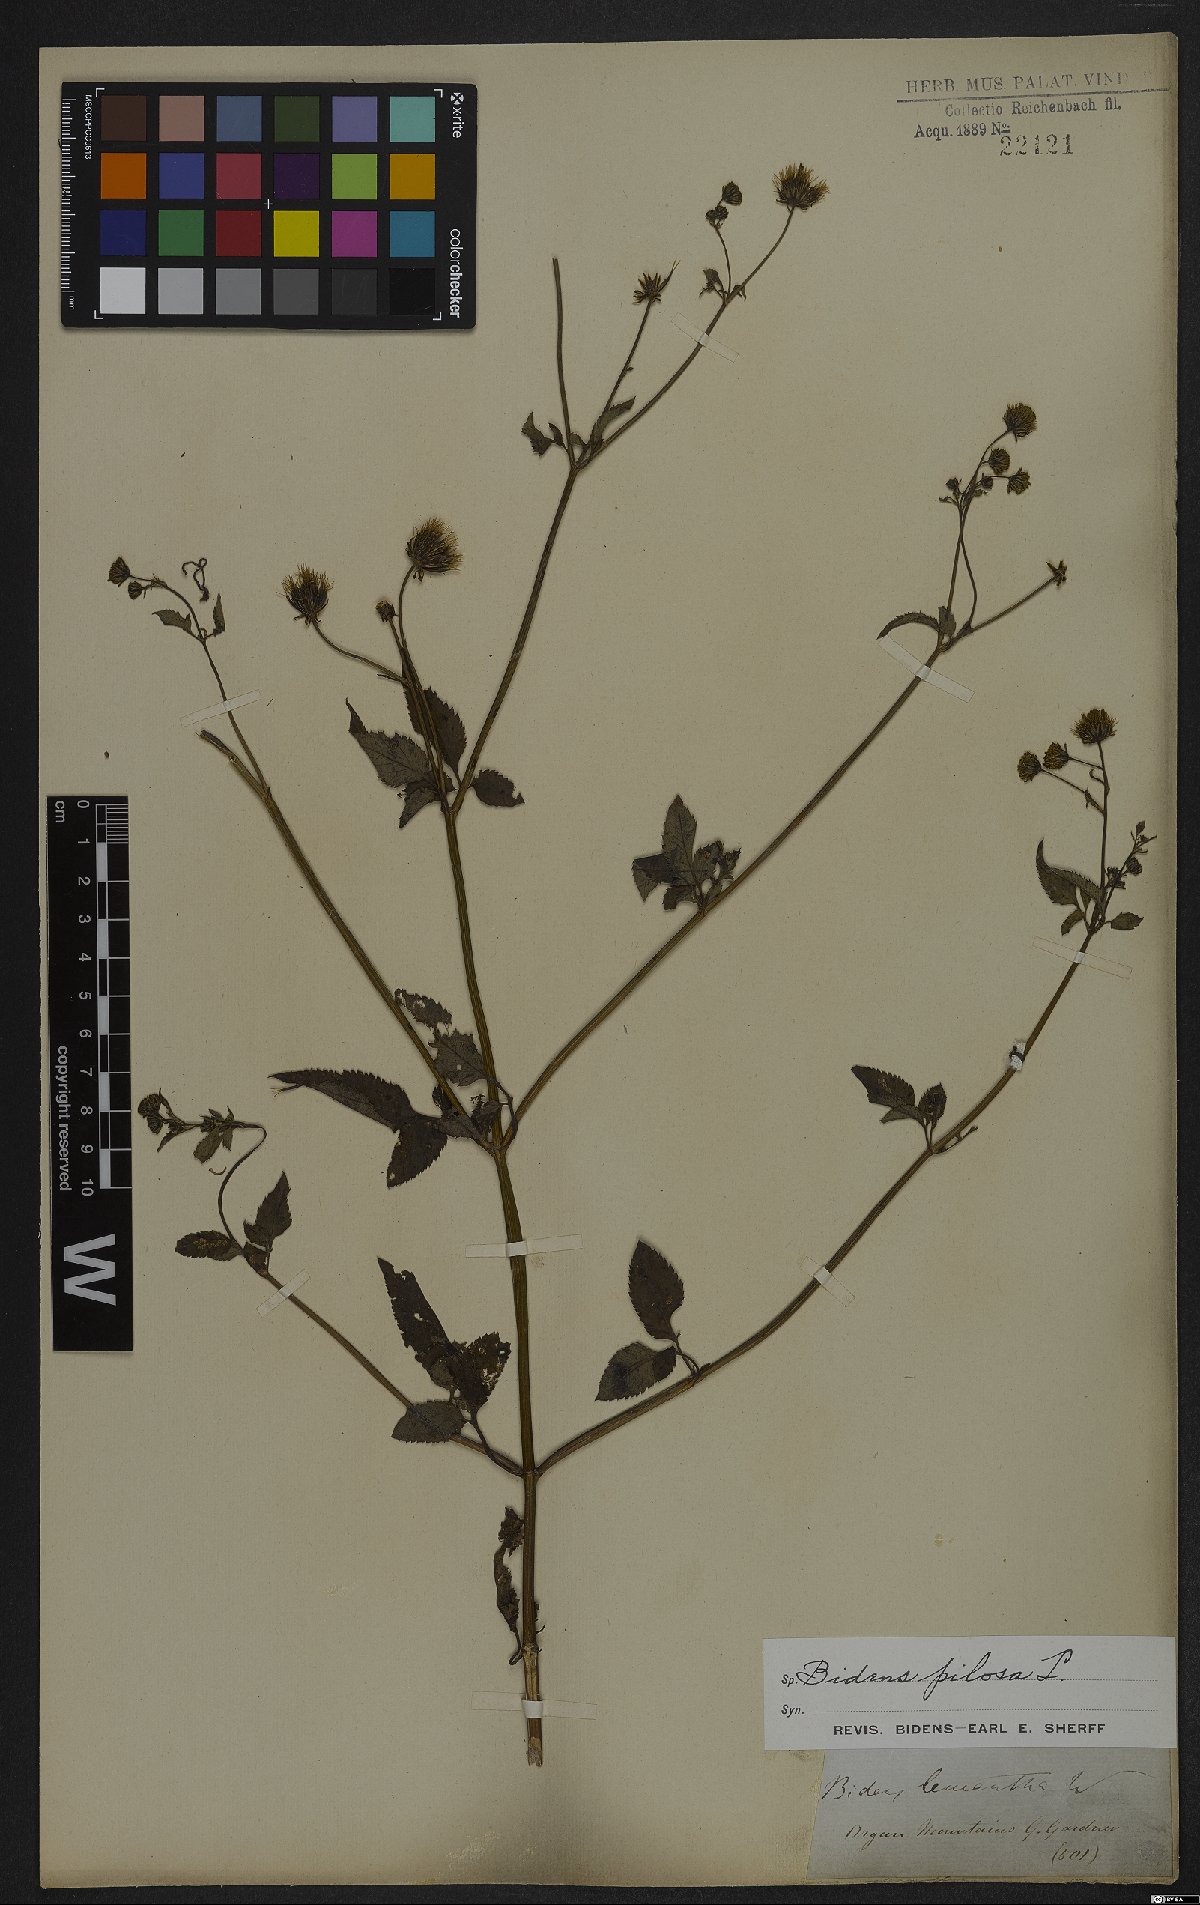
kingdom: Plantae
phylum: Tracheophyta
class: Magnoliopsida
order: Asterales
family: Asteraceae
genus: Bidens
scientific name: Bidens pilosa
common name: Black-jack
